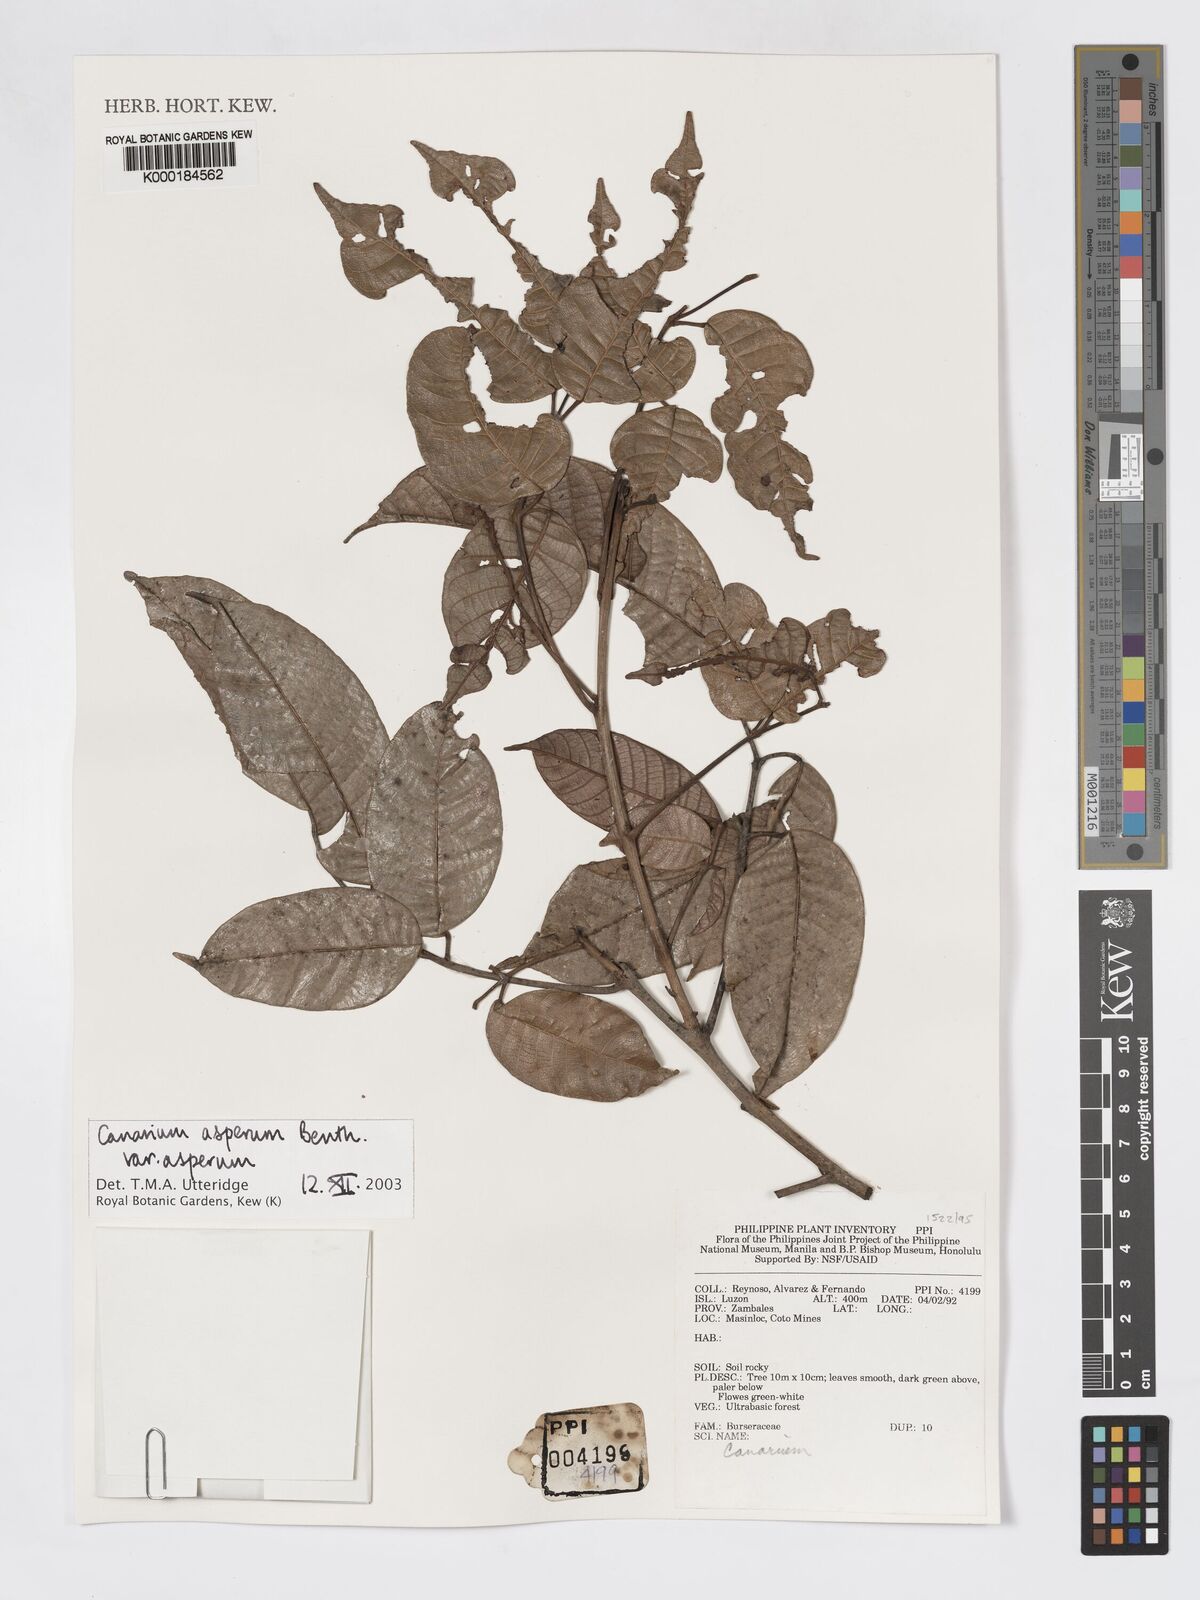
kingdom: Plantae
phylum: Tracheophyta
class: Magnoliopsida
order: Sapindales
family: Burseraceae
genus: Canarium
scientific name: Canarium asperum
